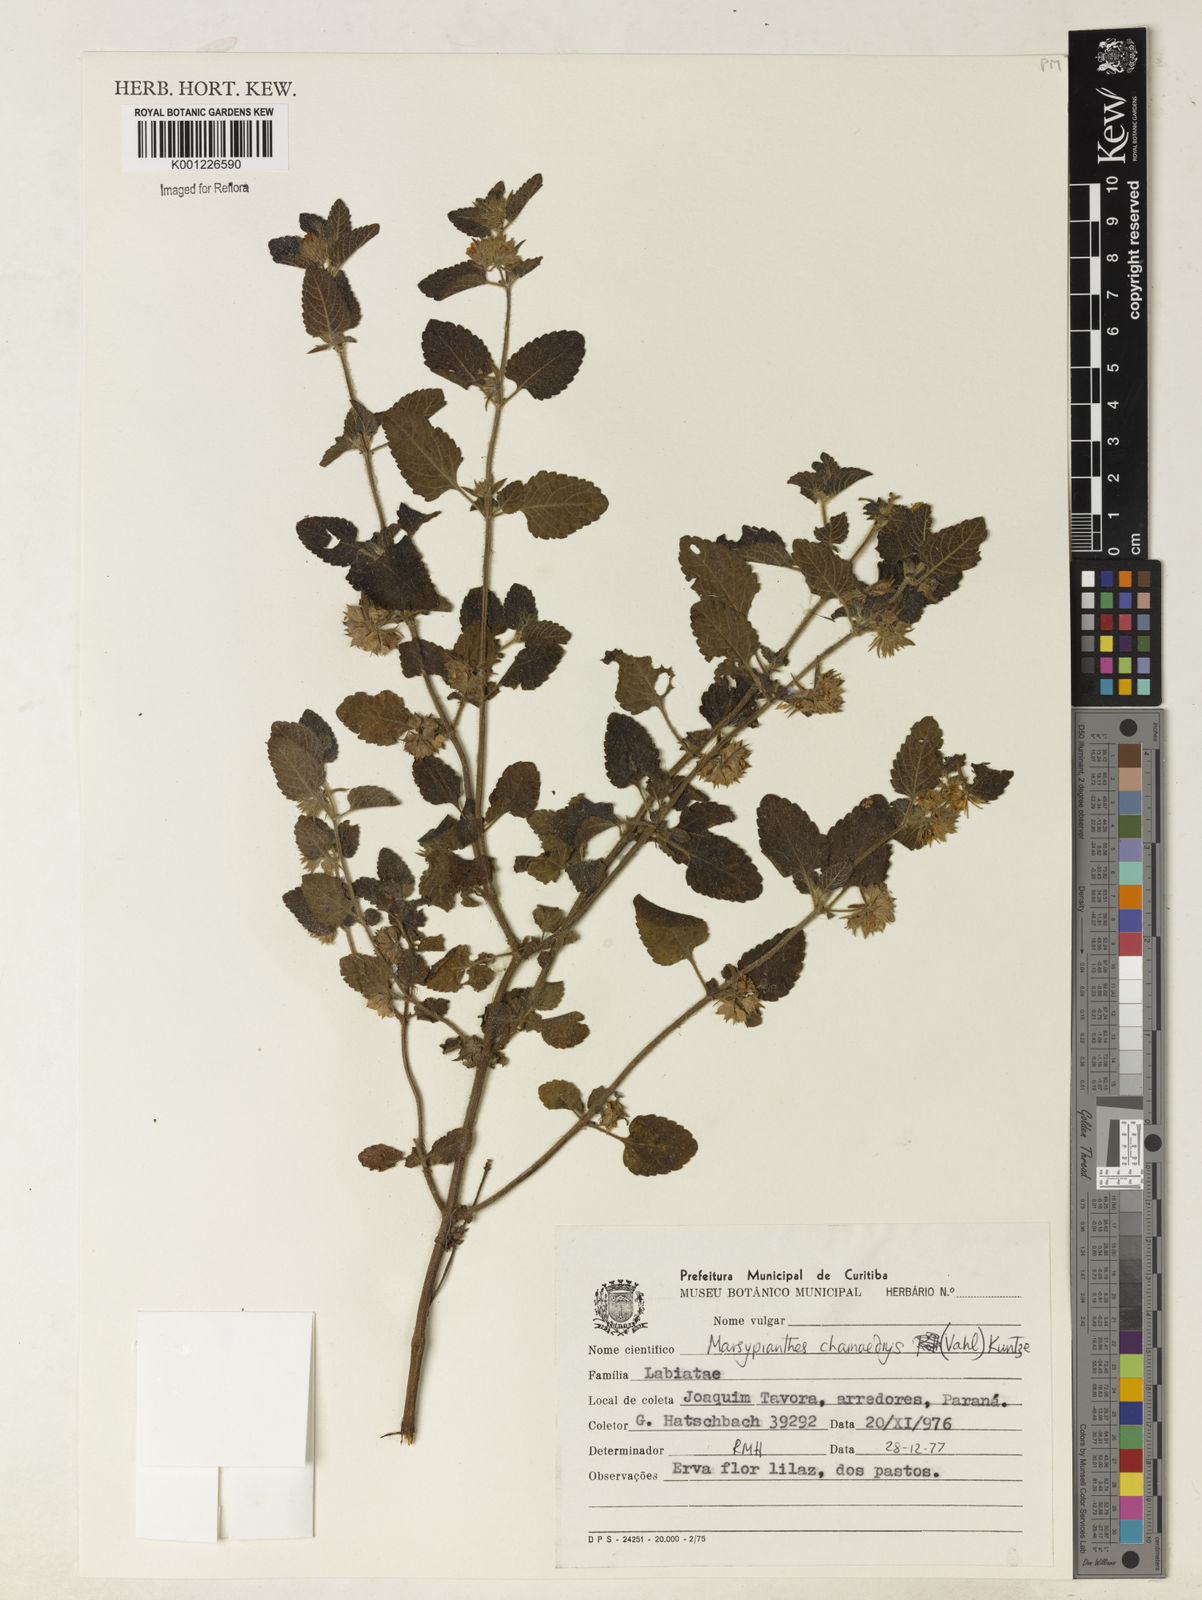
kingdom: Plantae
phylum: Tracheophyta
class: Magnoliopsida
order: Lamiales
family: Lamiaceae
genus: Marsypianthes
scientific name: Marsypianthes chamaedrys
